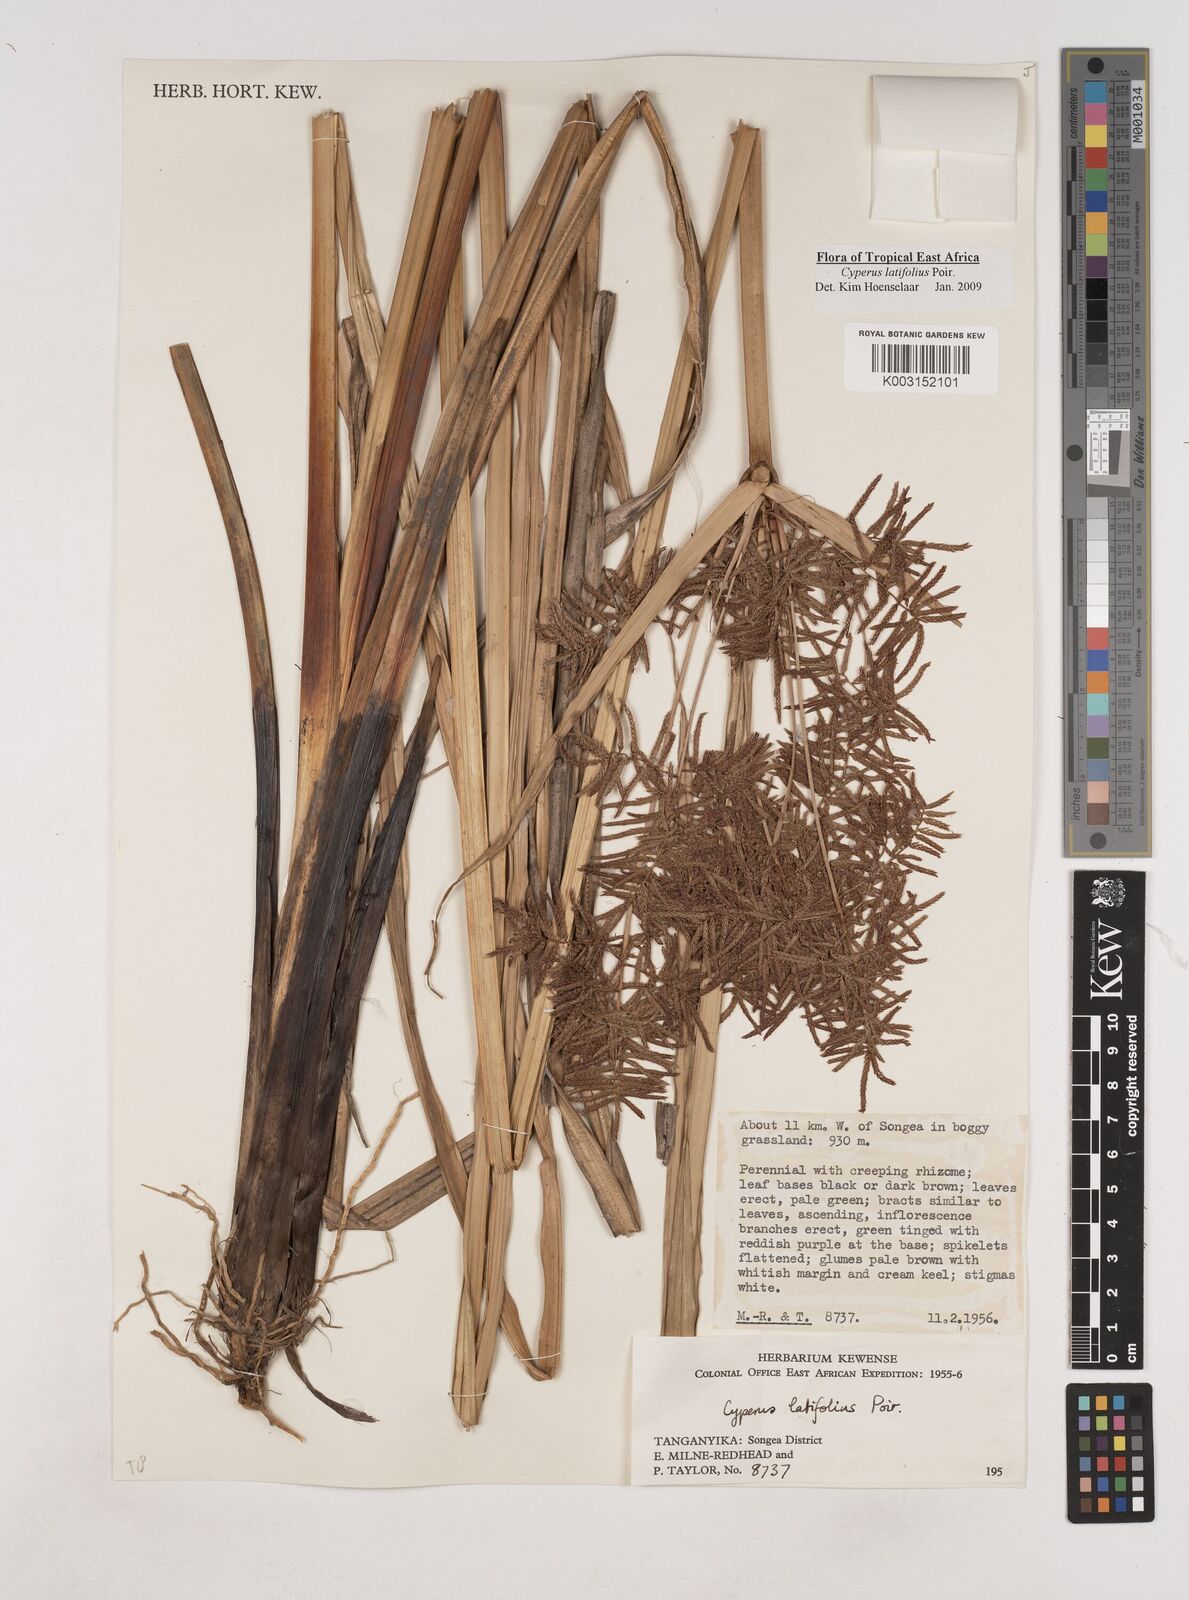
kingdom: Plantae
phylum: Tracheophyta
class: Liliopsida
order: Poales
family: Cyperaceae
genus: Cyperus
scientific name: Cyperus latifolius
